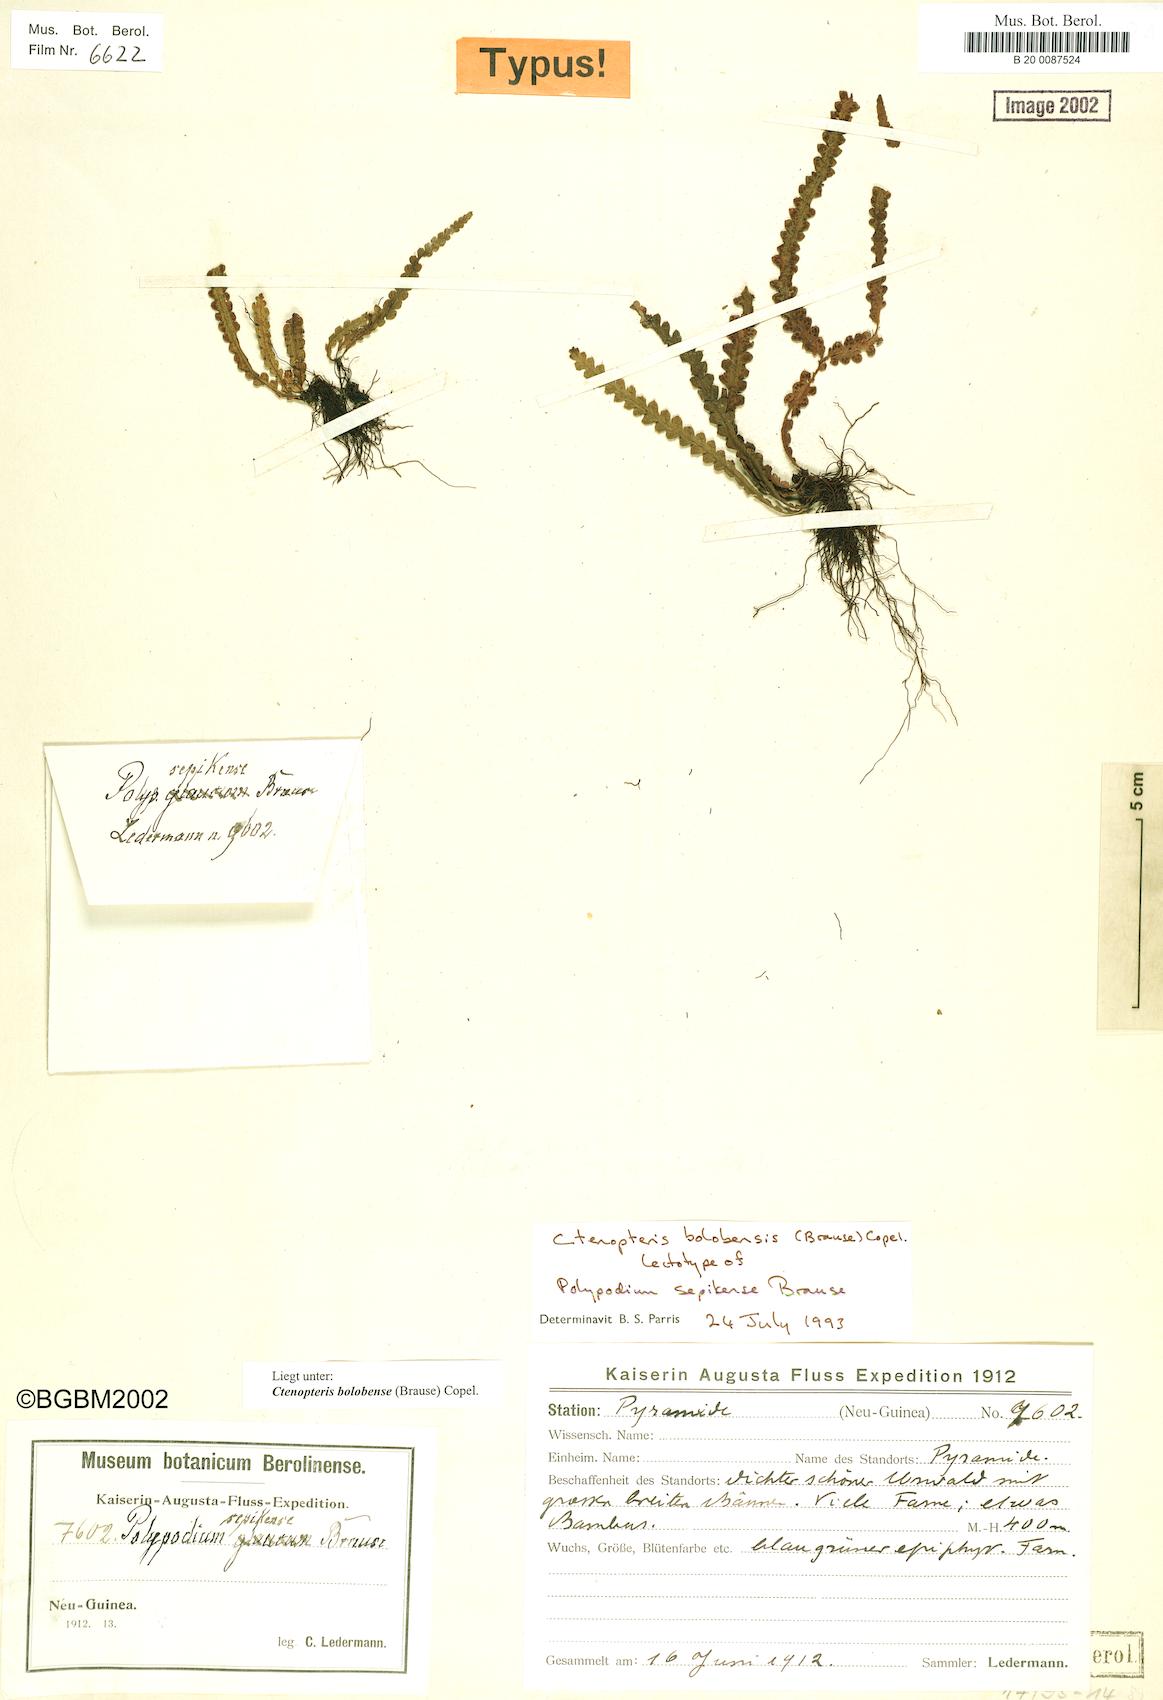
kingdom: Plantae
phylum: Tracheophyta
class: Polypodiopsida
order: Polypodiales
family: Polypodiaceae
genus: Prosaptia
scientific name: Prosaptia bolobensis
